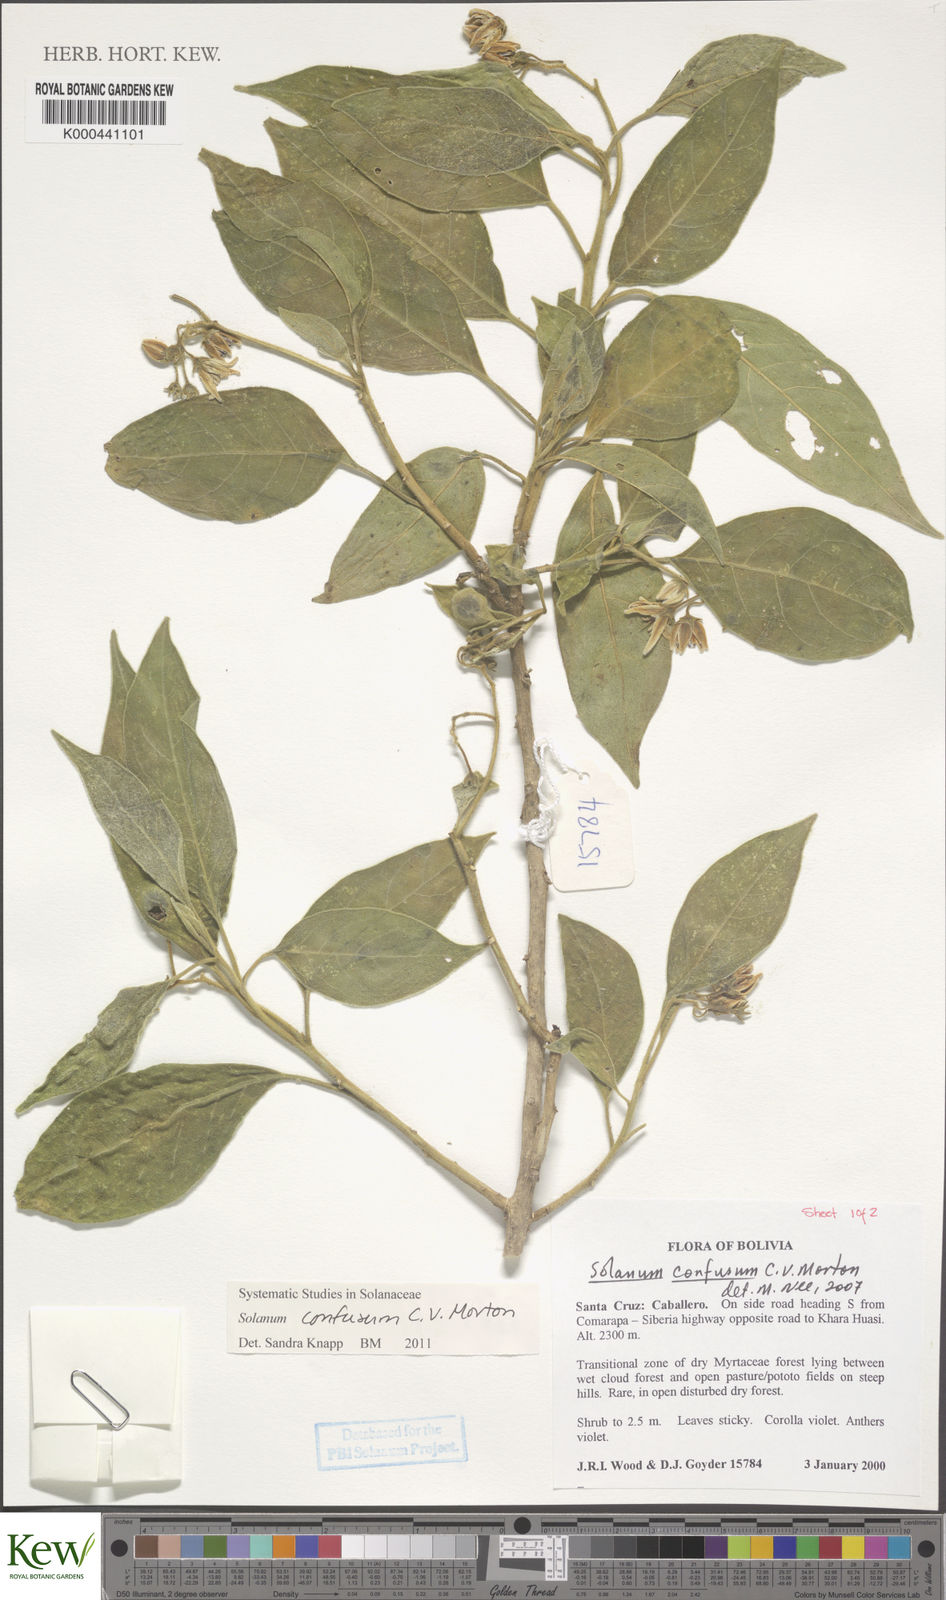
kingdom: Plantae
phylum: Tracheophyta
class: Magnoliopsida
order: Solanales
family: Solanaceae
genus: Solanum
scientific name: Solanum confusum
